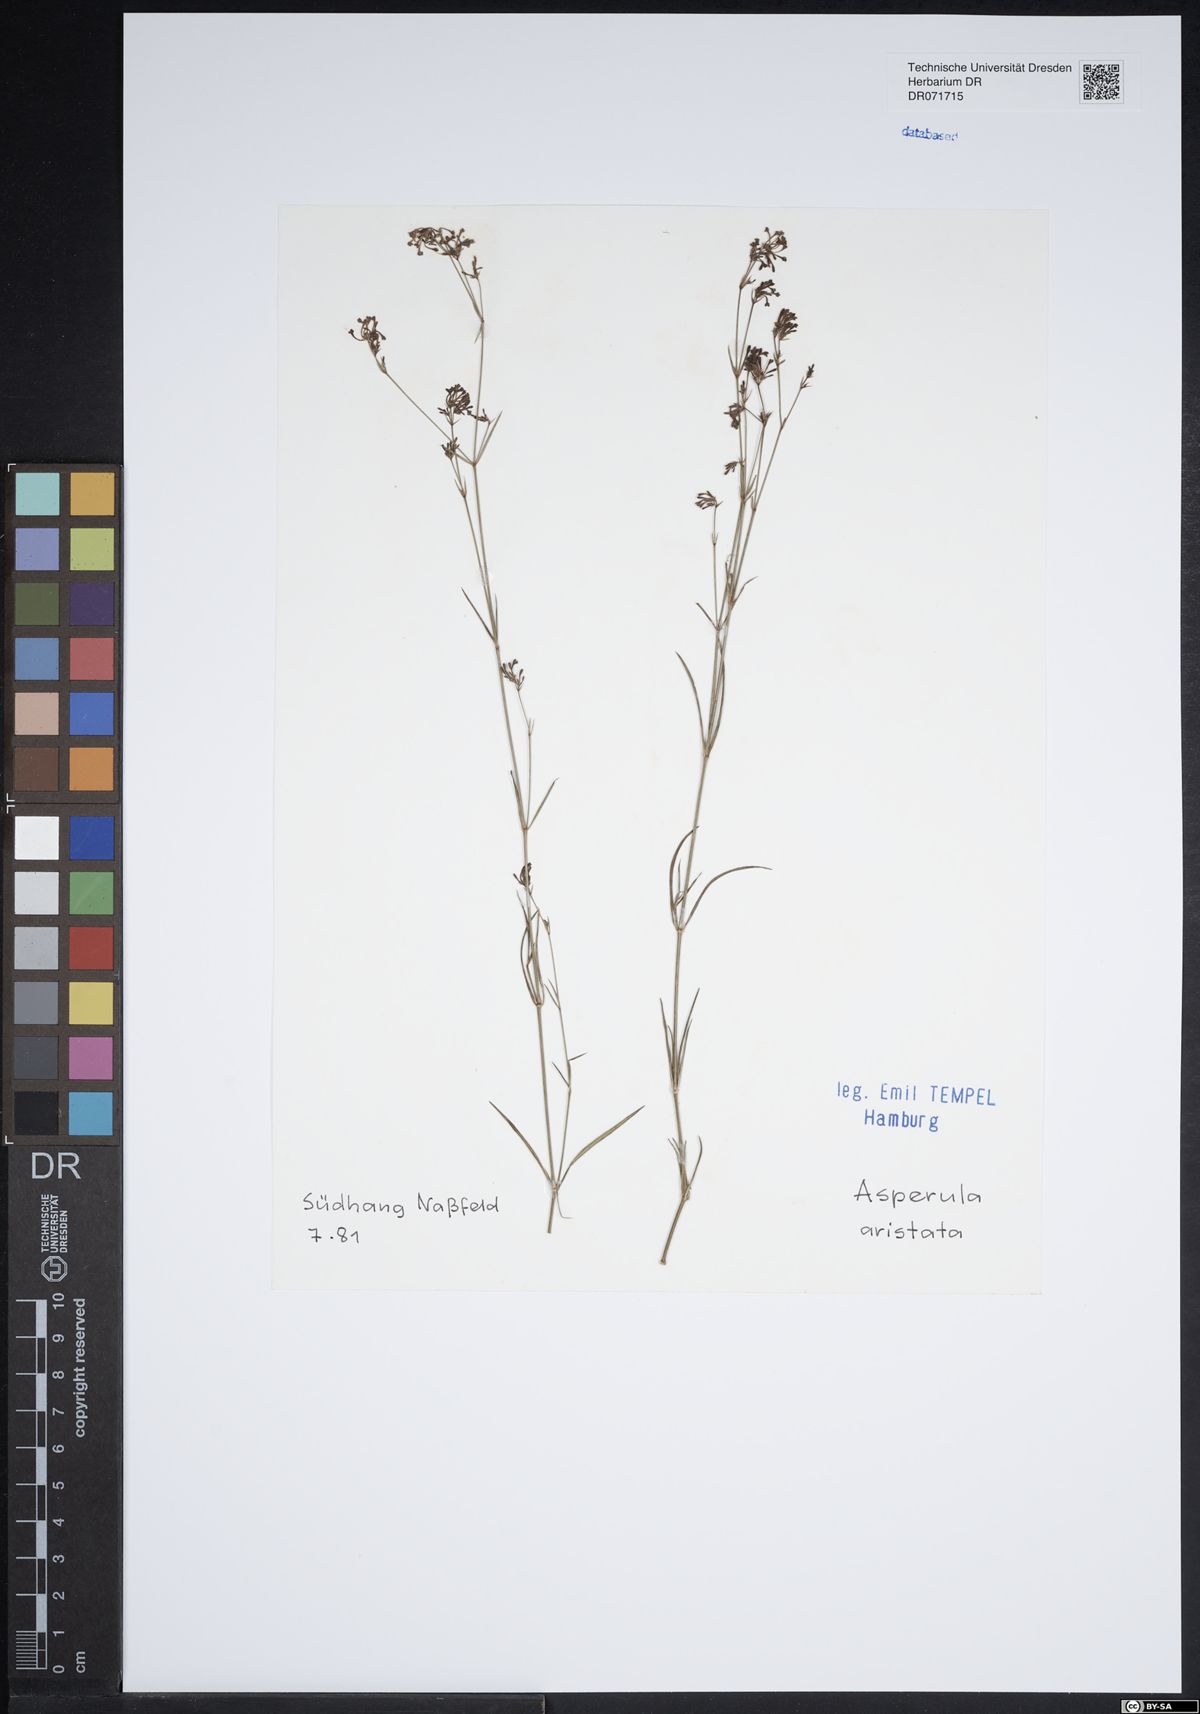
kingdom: Plantae
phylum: Tracheophyta
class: Magnoliopsida
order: Gentianales
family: Rubiaceae
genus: Cynanchica
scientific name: Cynanchica aristata
